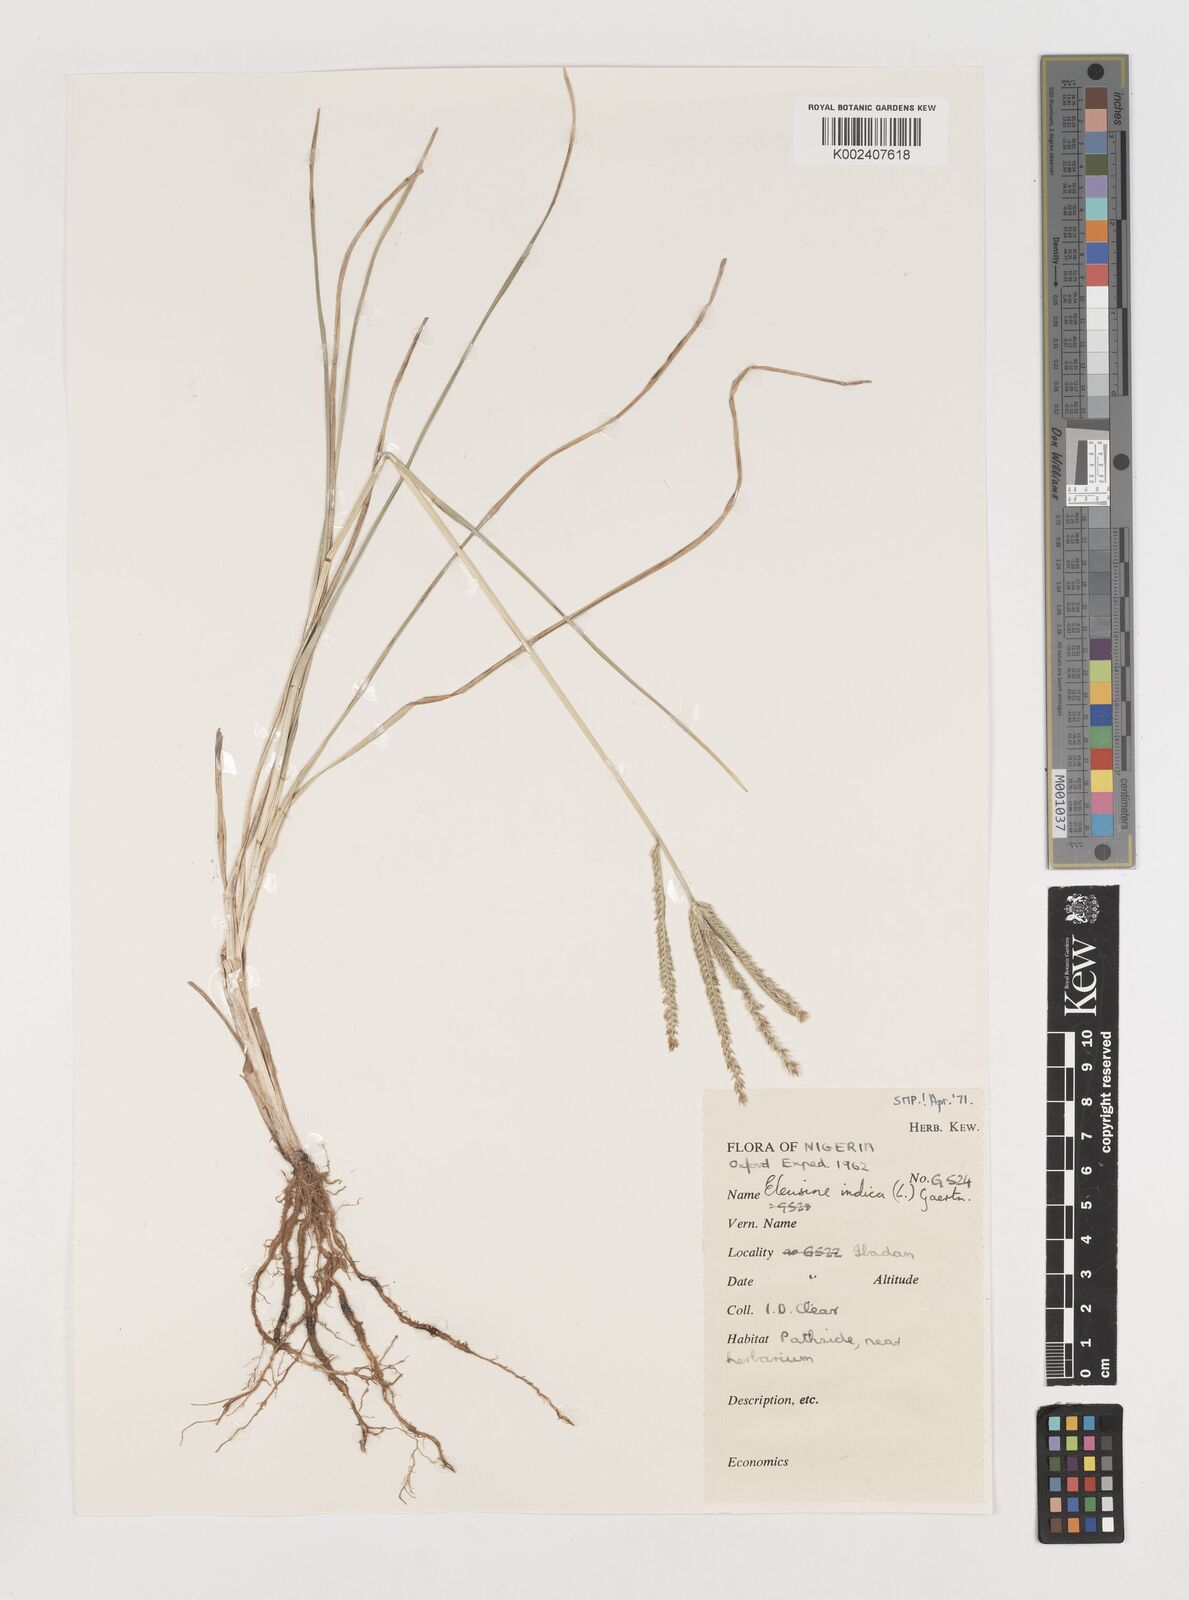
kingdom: Plantae
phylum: Tracheophyta
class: Liliopsida
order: Poales
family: Poaceae
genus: Eleusine
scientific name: Eleusine indica
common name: Yard-grass
